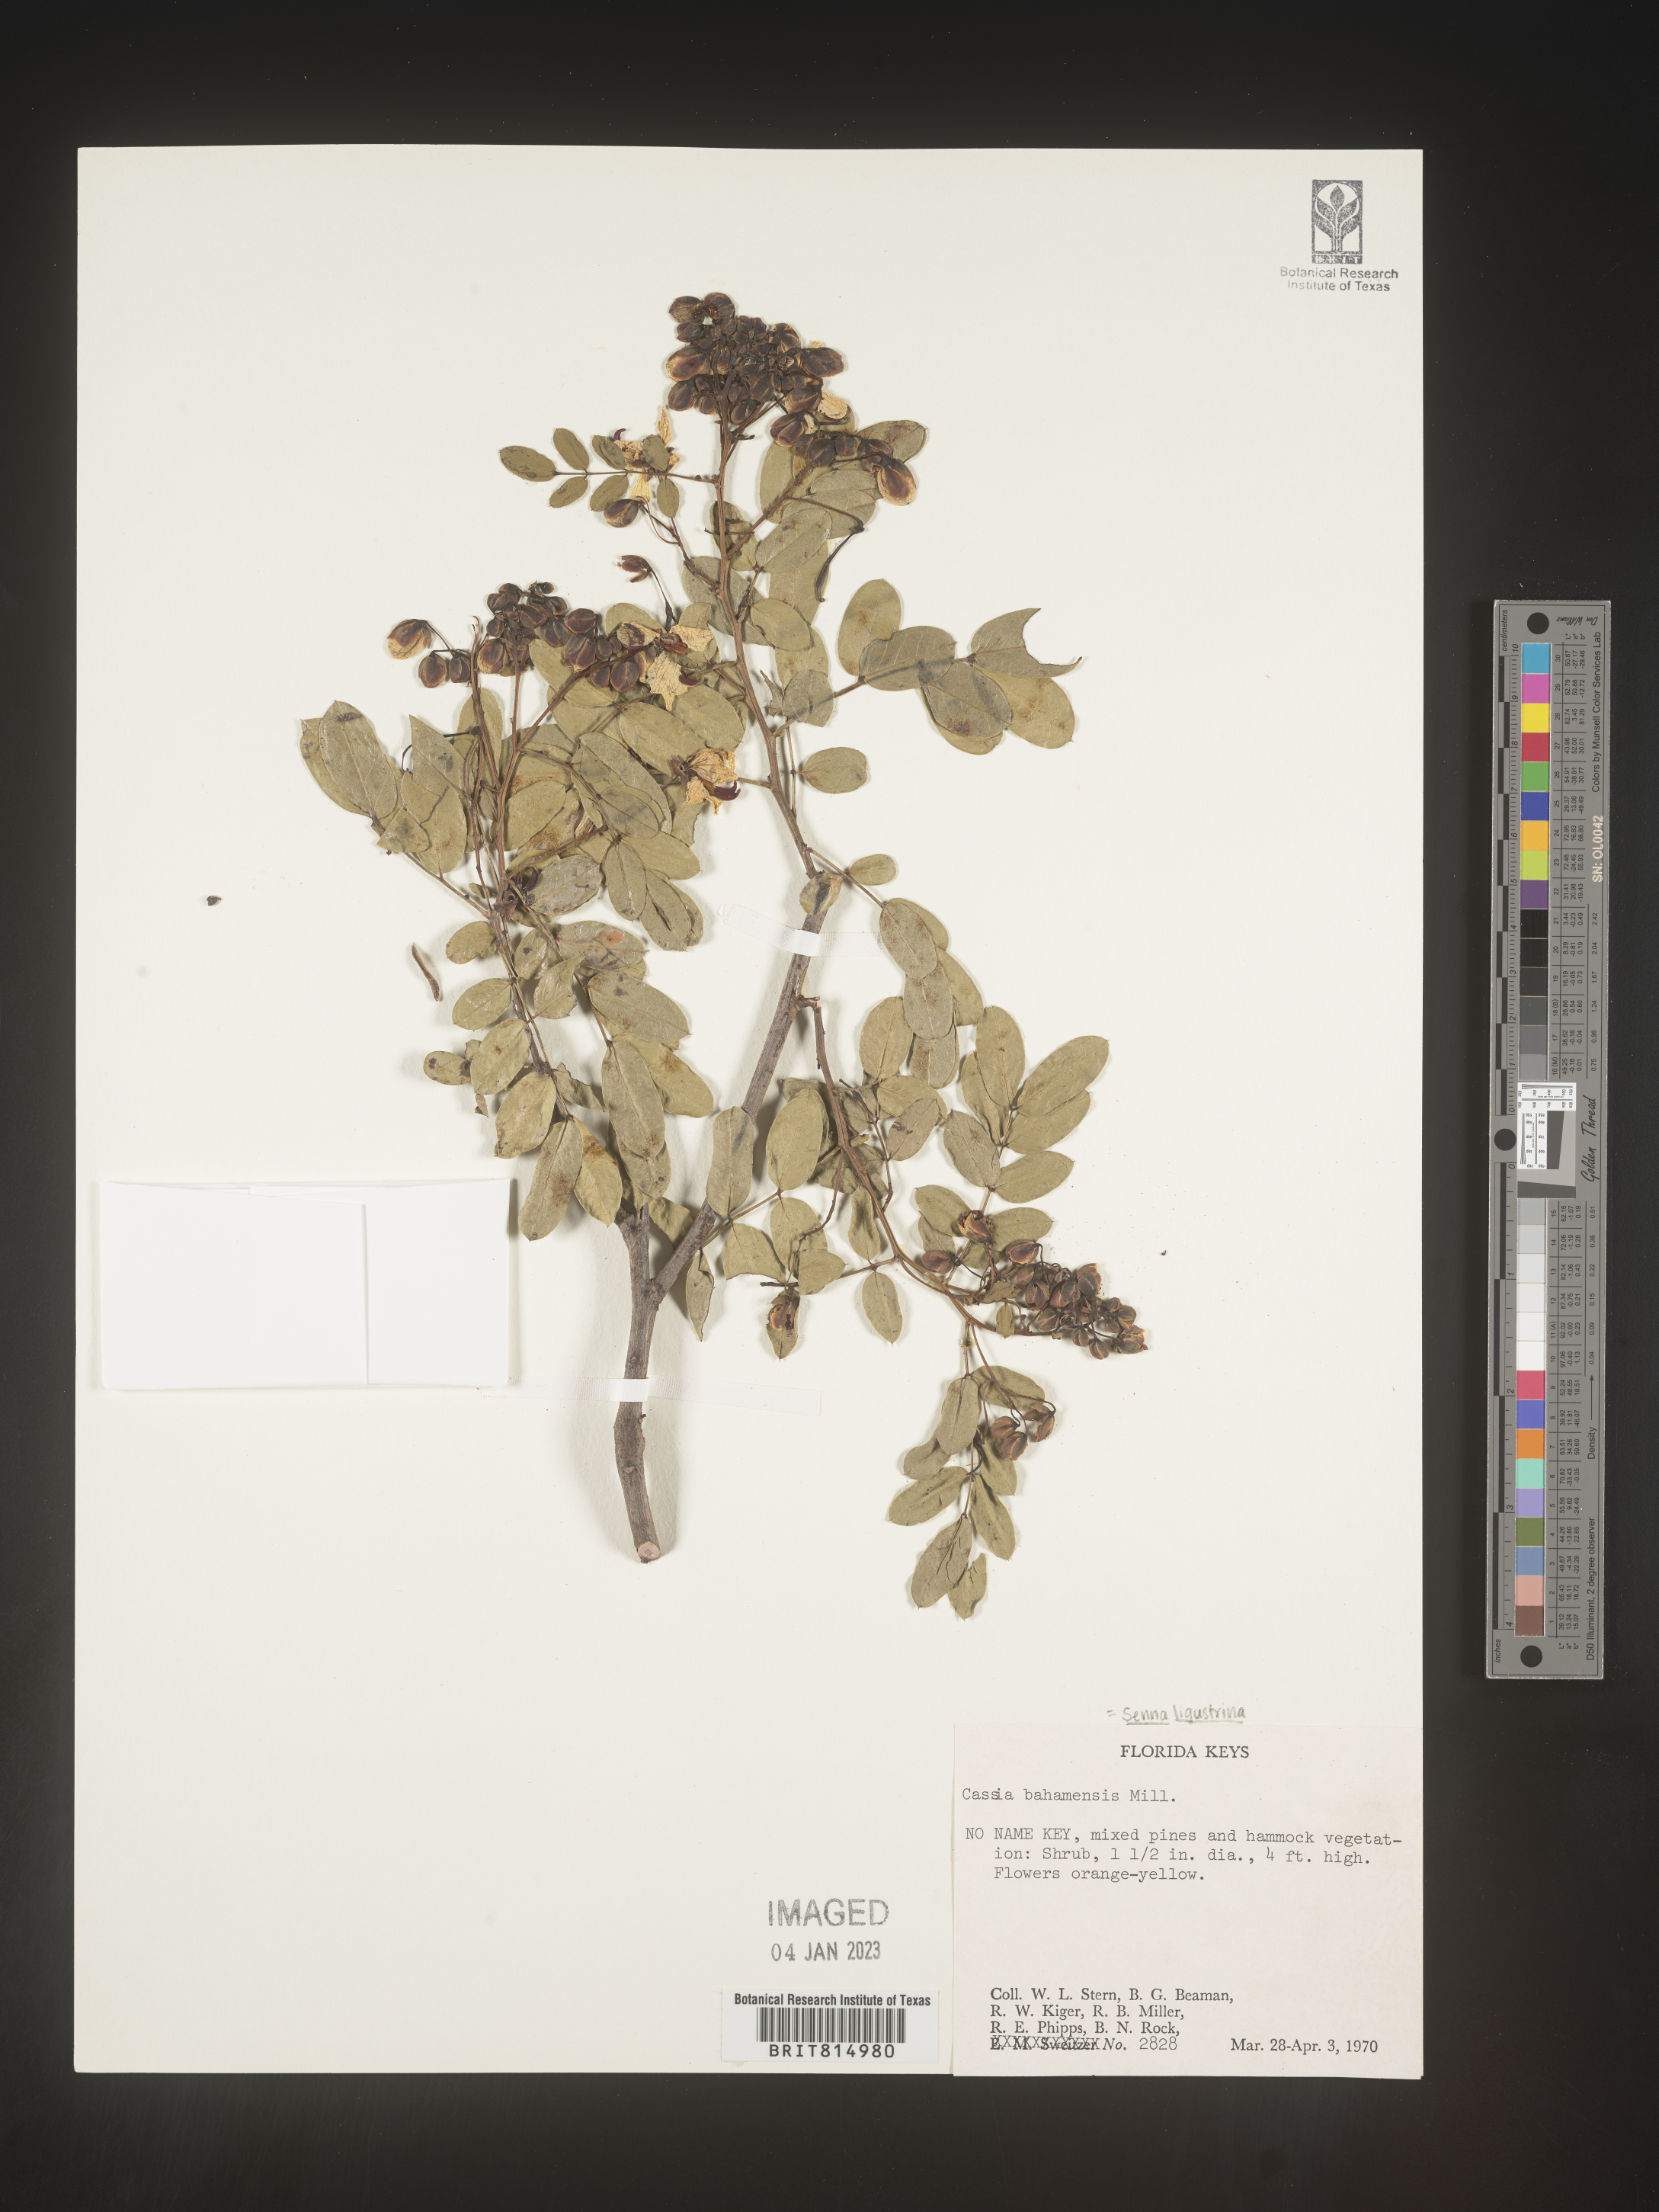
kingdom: Plantae
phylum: Tracheophyta
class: Magnoliopsida
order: Fabales
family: Fabaceae
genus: Cassia
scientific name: Cassia
